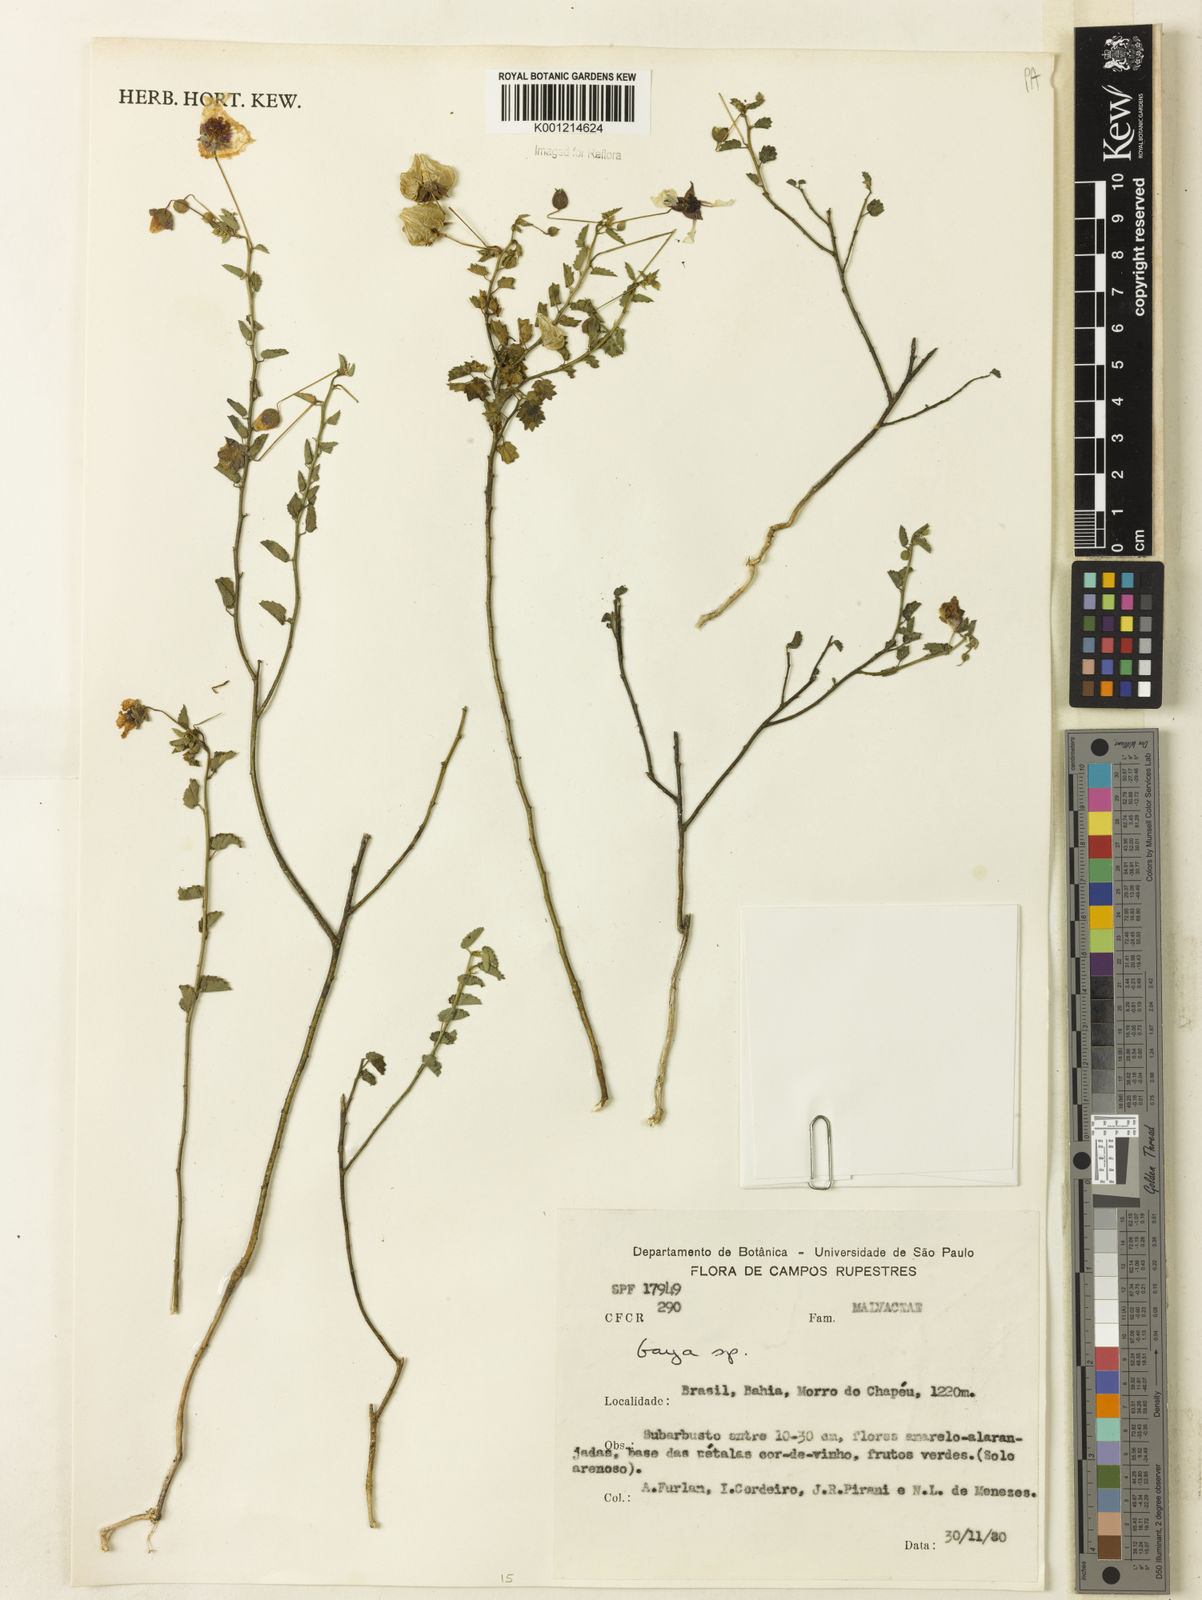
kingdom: Plantae
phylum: Tracheophyta
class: Magnoliopsida
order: Malvales
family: Malvaceae
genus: Gaya
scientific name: Gaya
